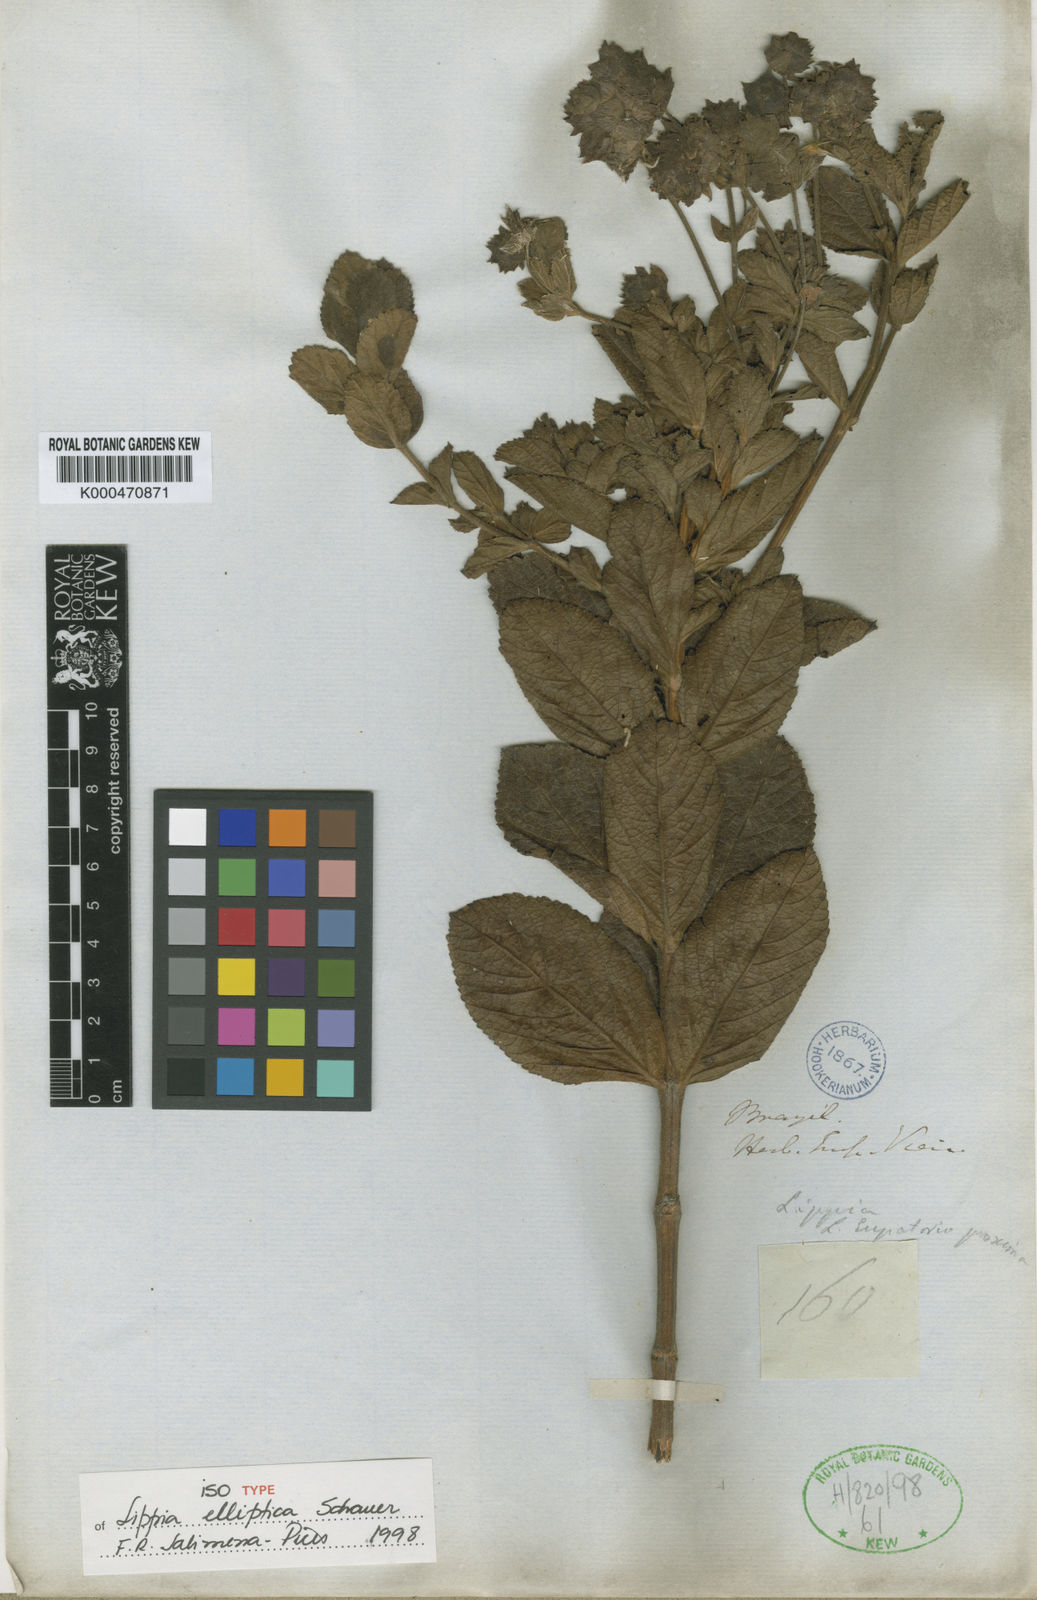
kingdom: Plantae
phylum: Tracheophyta
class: Magnoliopsida
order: Lamiales
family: Verbenaceae
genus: Lippia
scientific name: Lippia elliptica
